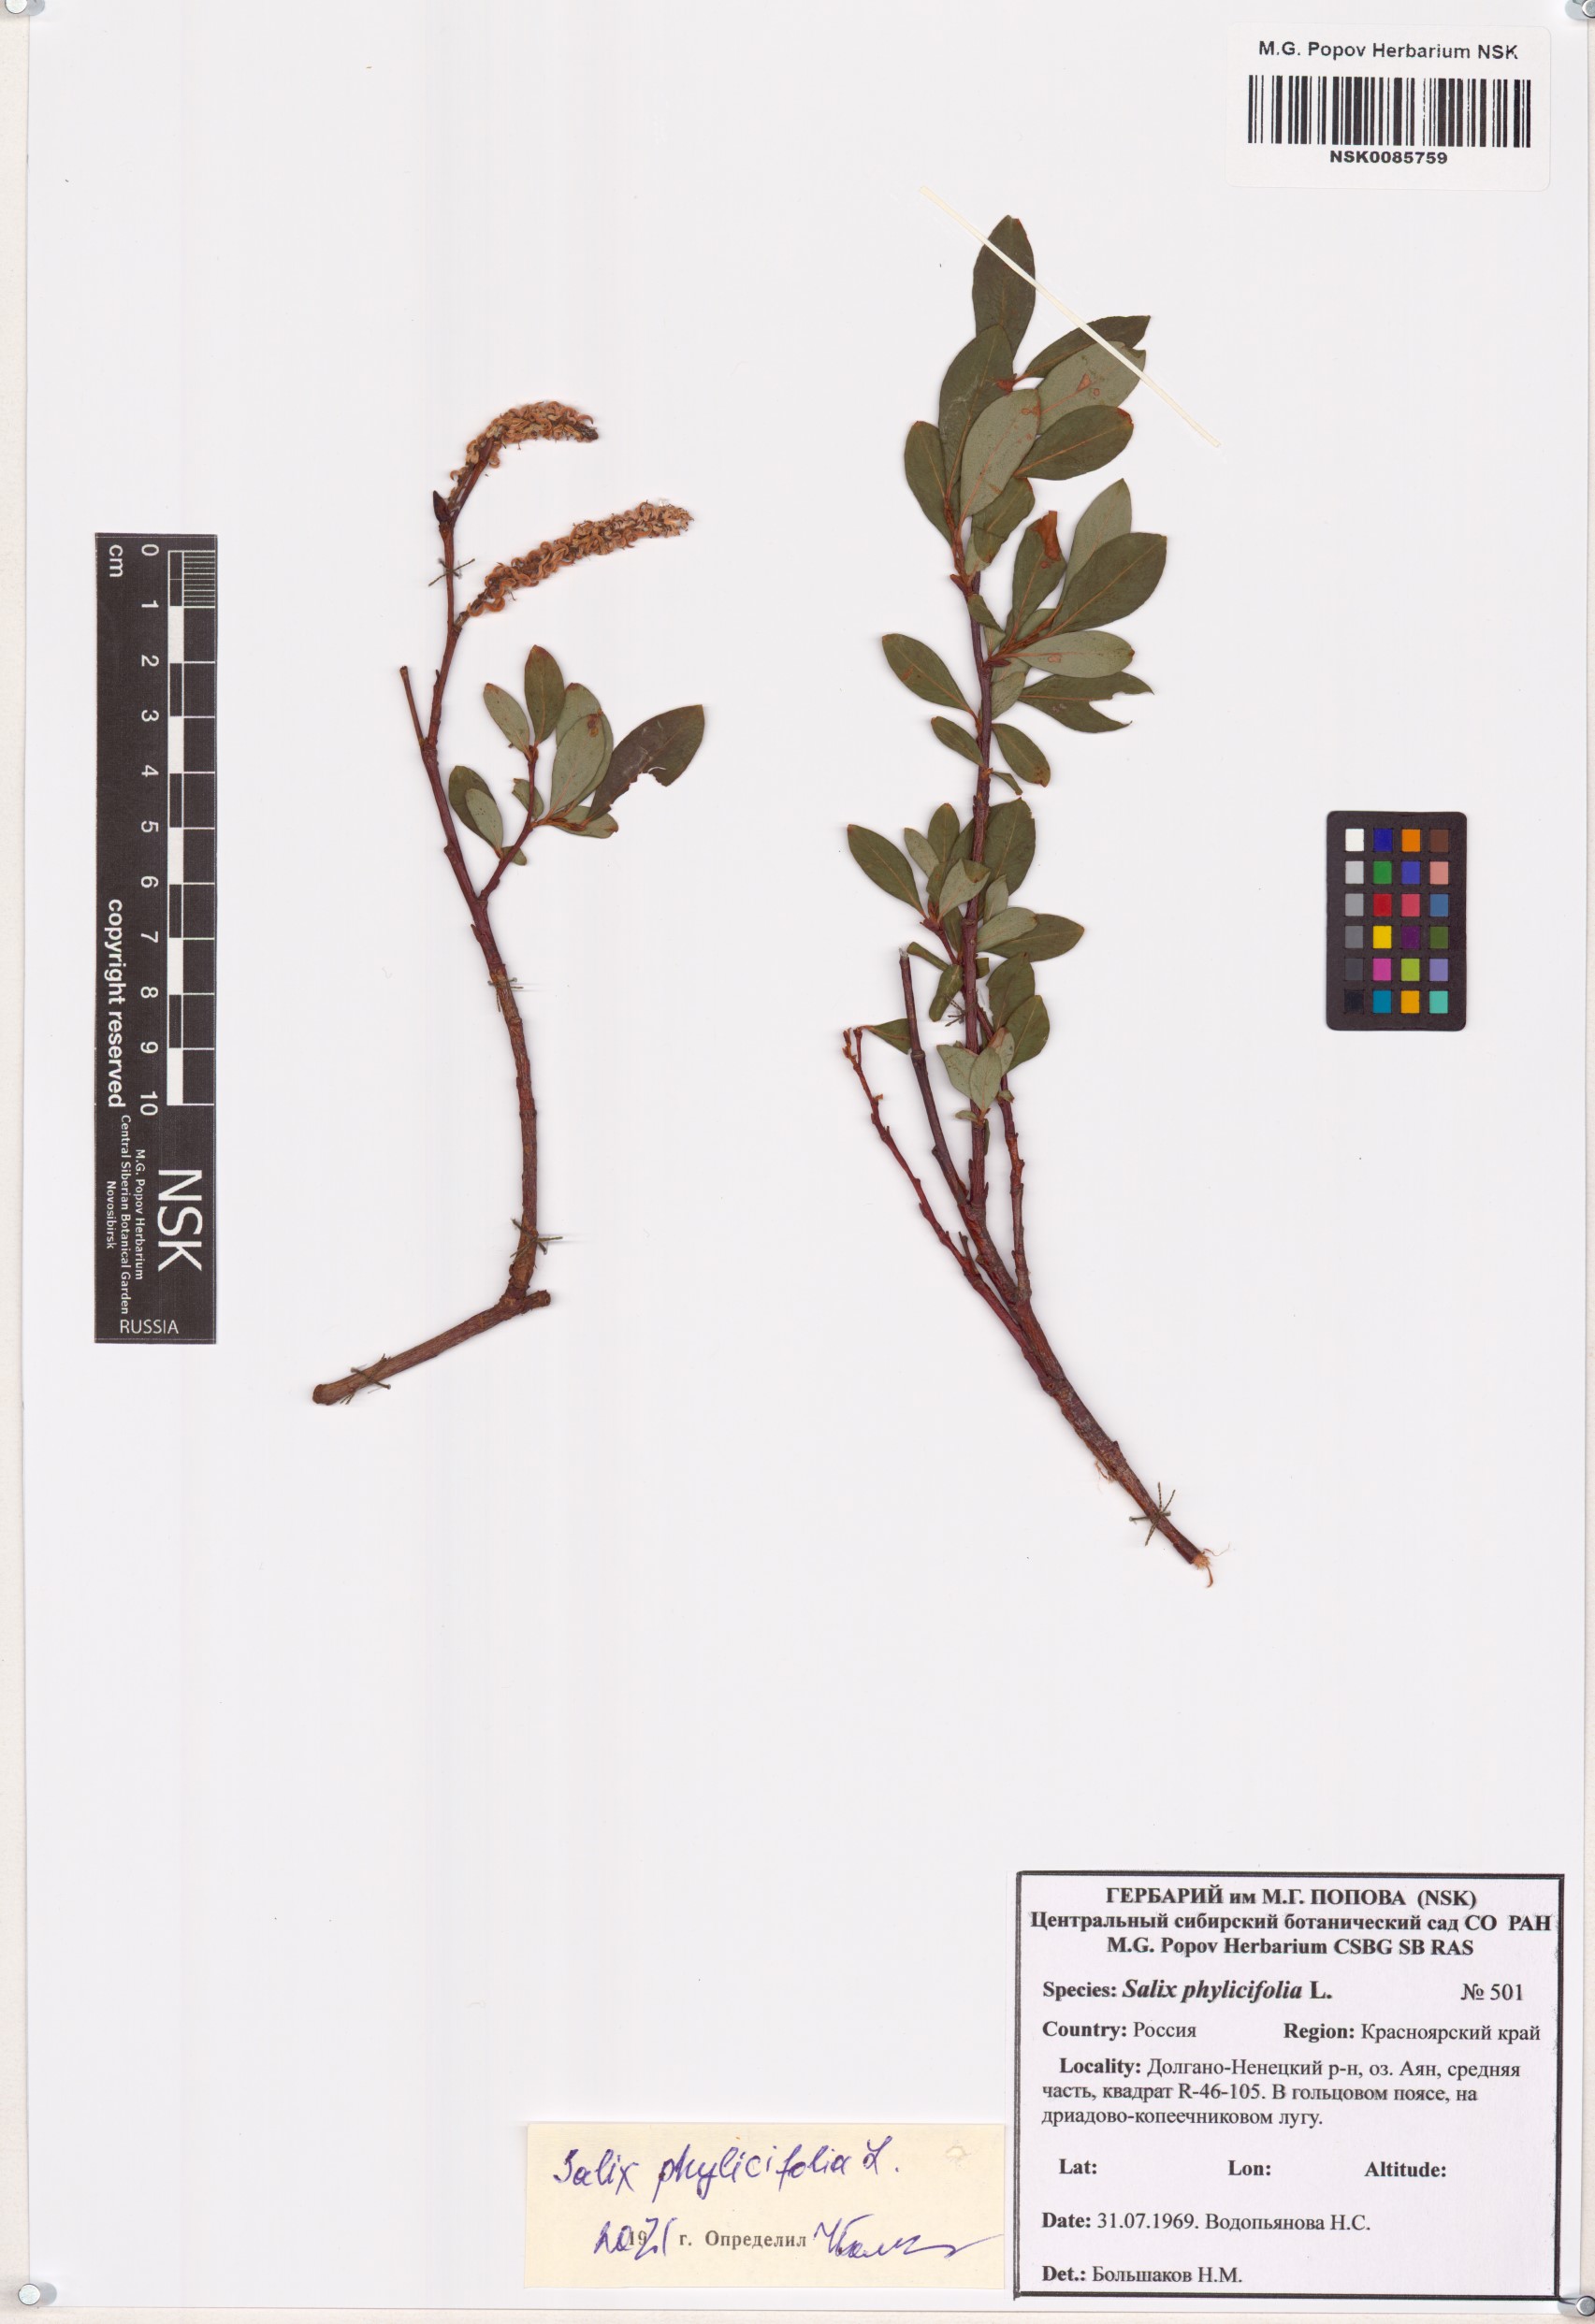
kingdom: Plantae
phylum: Tracheophyta
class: Magnoliopsida
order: Malpighiales
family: Salicaceae
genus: Salix
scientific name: Salix phylicifolia
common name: Tea-leaved willow
